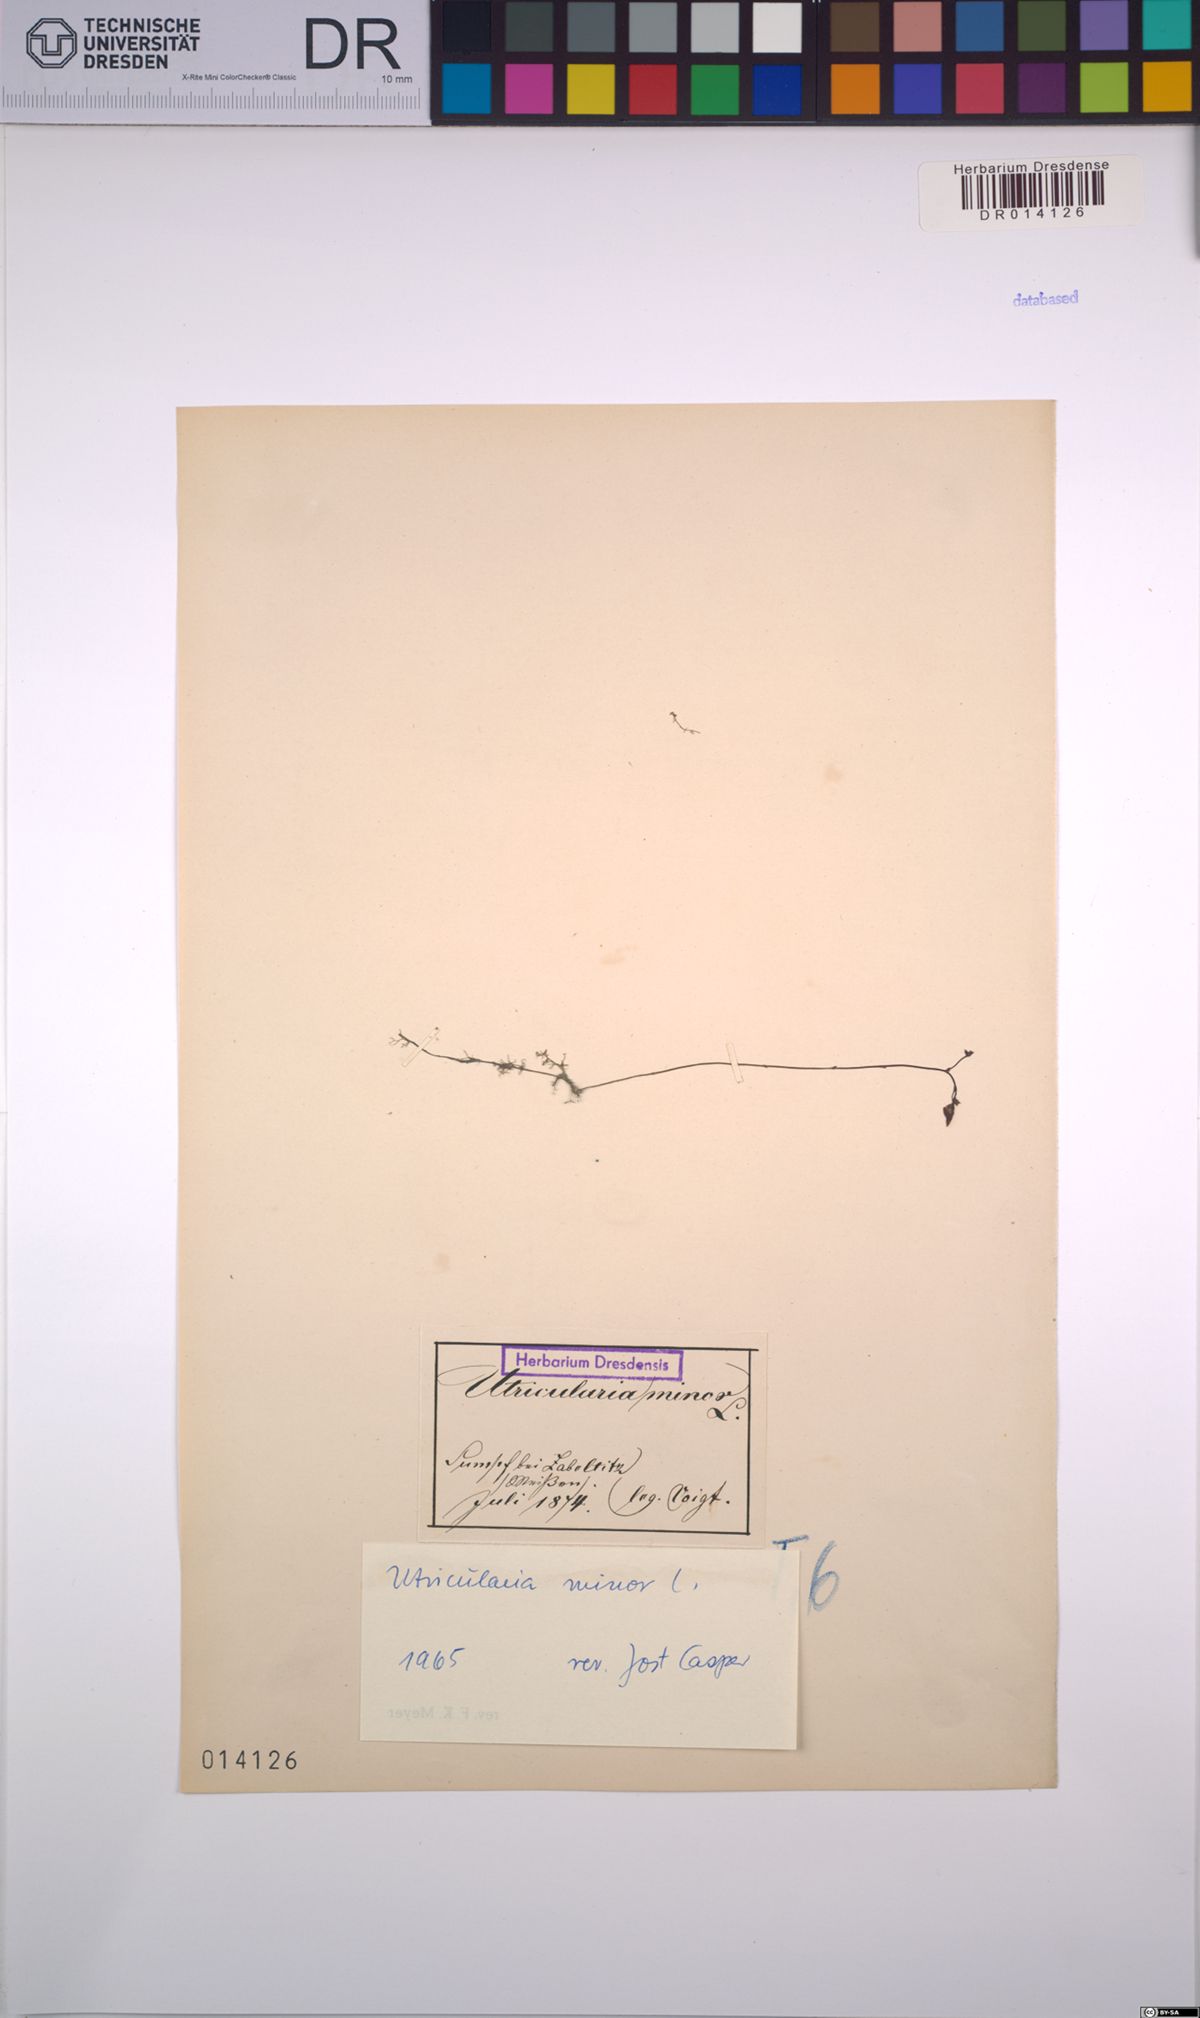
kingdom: Plantae
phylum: Tracheophyta
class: Magnoliopsida
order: Lamiales
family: Lentibulariaceae
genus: Utricularia
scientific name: Utricularia minor
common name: Lesser bladderwort
